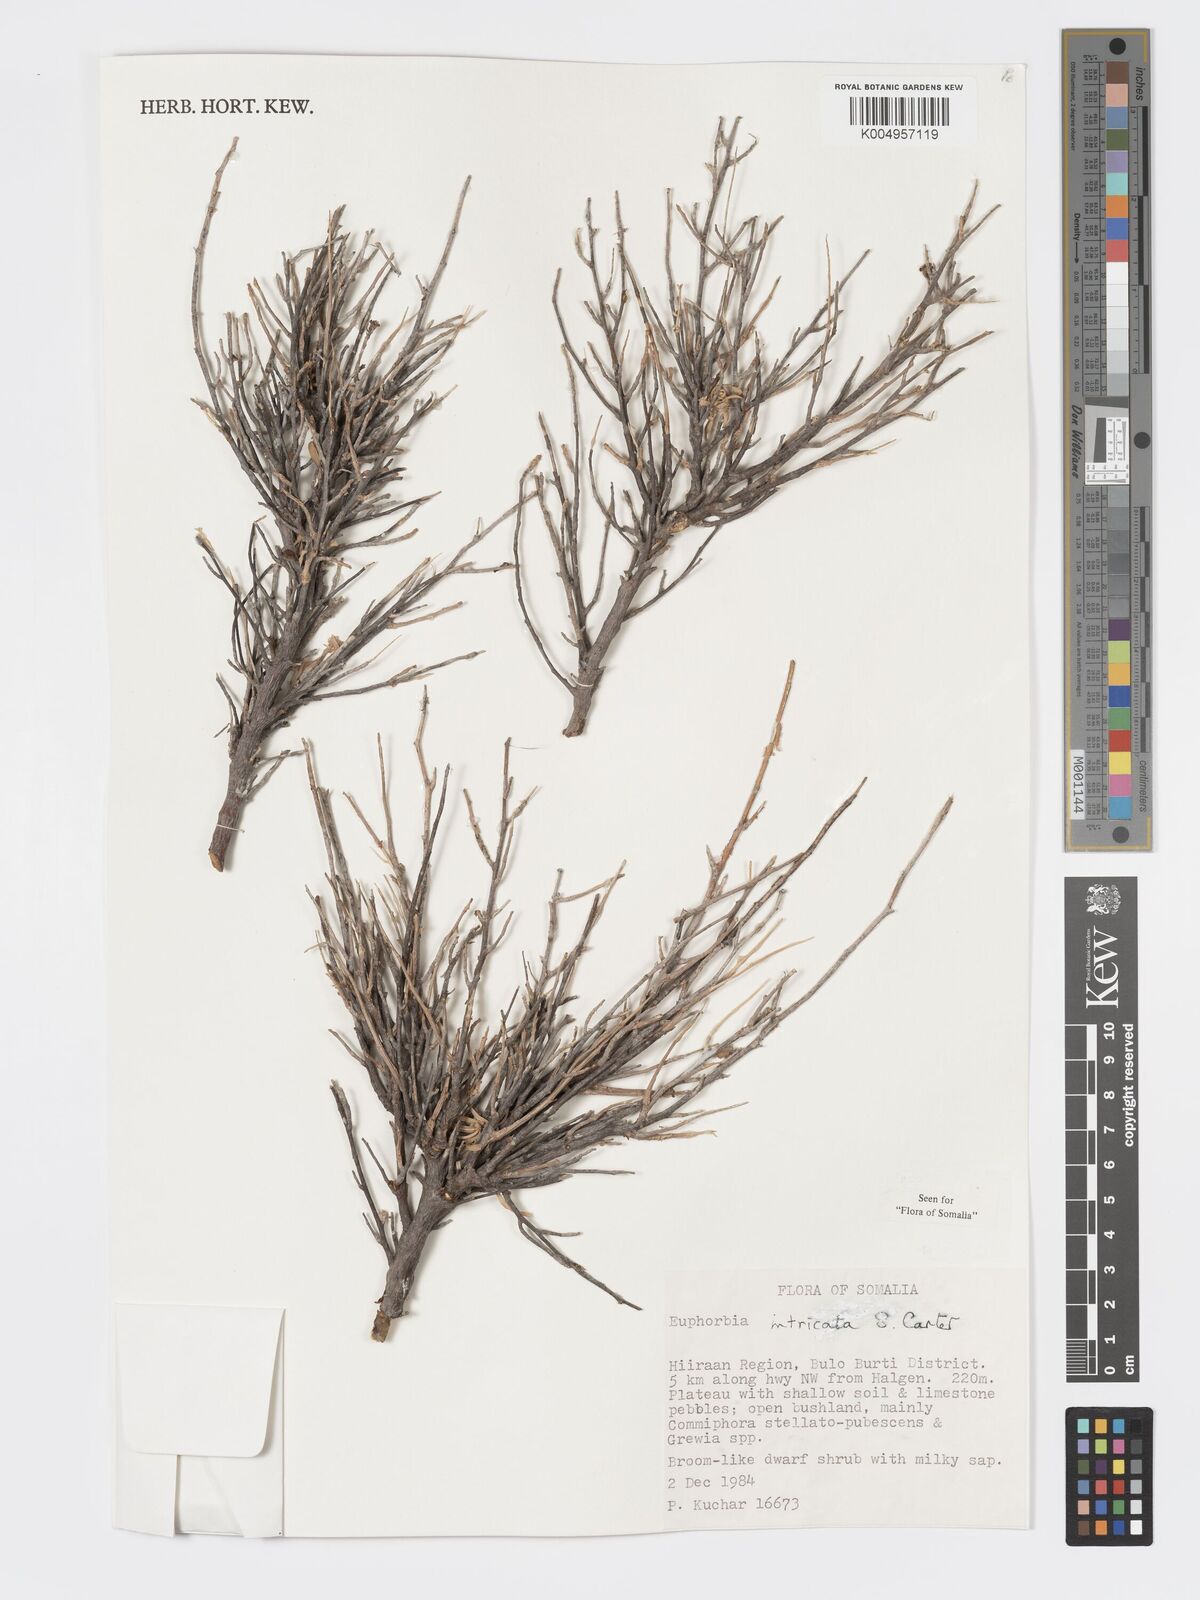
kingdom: Plantae
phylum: Tracheophyta
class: Magnoliopsida
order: Malpighiales
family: Euphorbiaceae
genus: Euphorbia
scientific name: Euphorbia intricata
